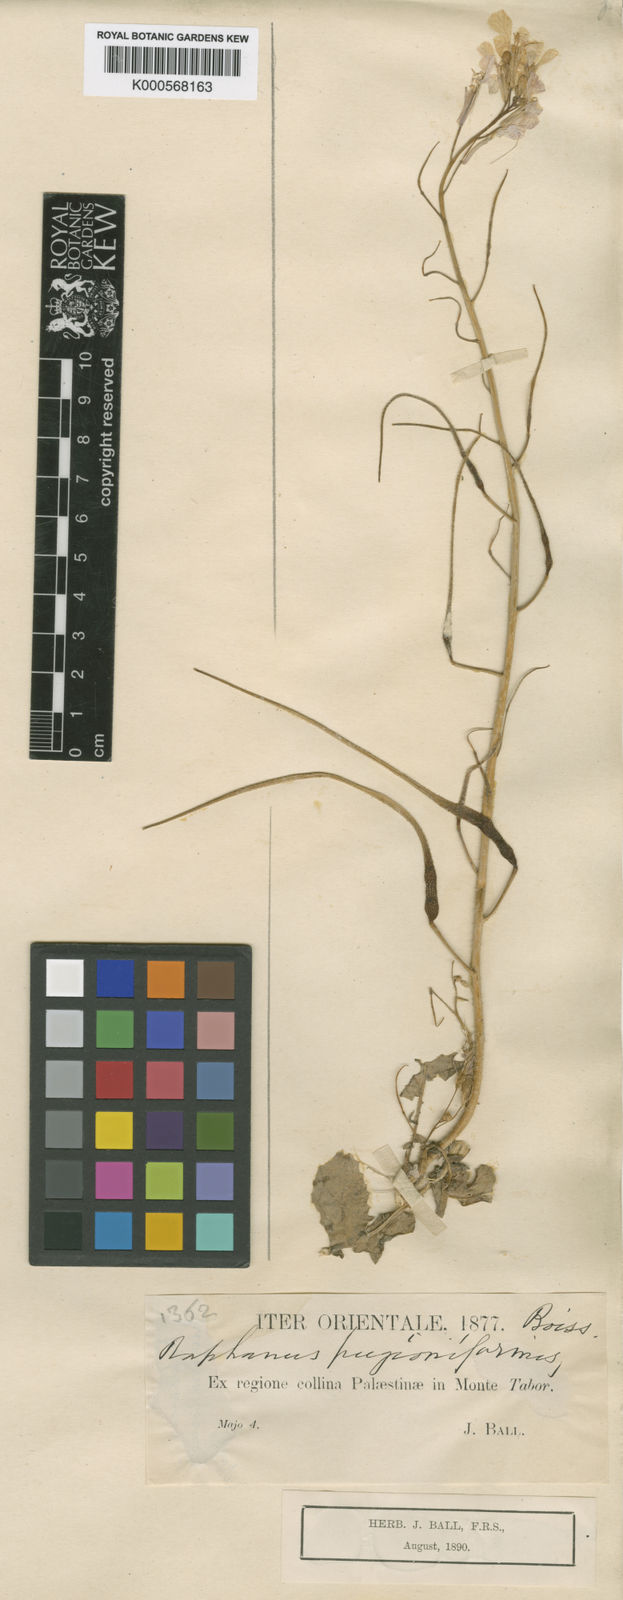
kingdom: Plantae
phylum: Tracheophyta
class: Magnoliopsida
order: Brassicales
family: Brassicaceae
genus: Raphanus
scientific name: Raphanus raphanistrum
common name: Wild radish
